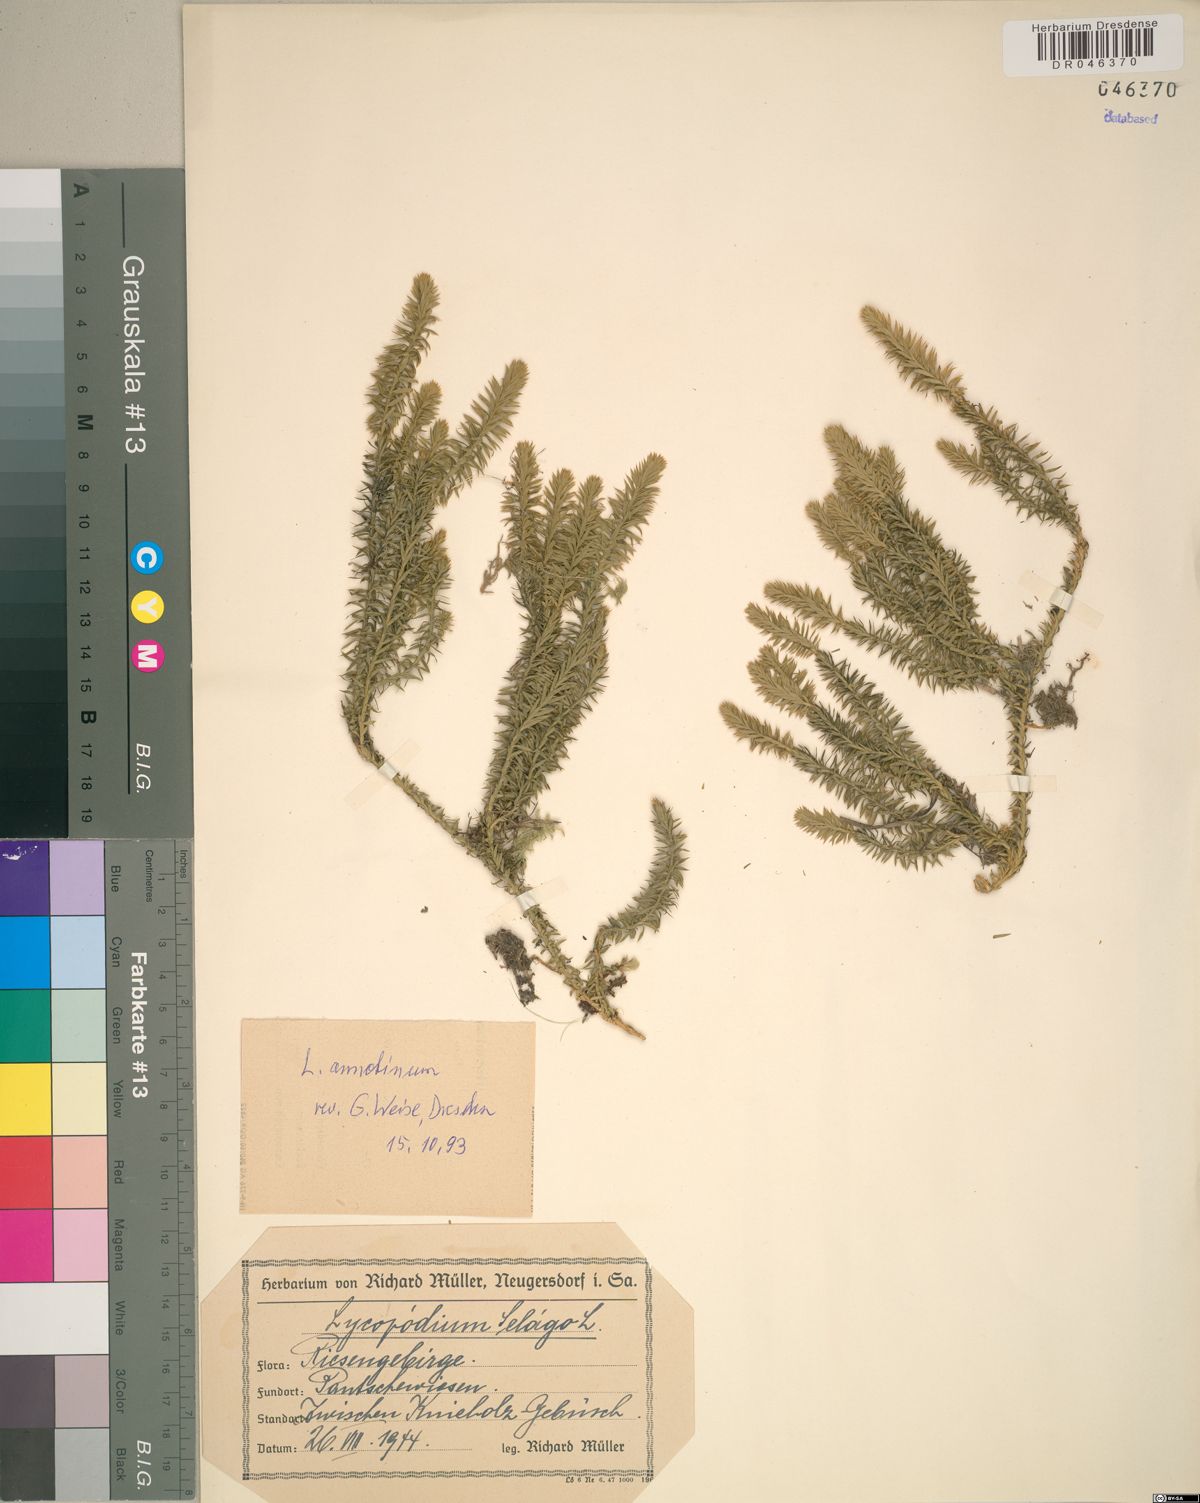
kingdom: Plantae
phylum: Tracheophyta
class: Lycopodiopsida
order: Lycopodiales
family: Lycopodiaceae
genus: Spinulum
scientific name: Spinulum annotinum
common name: Interrupted club-moss
